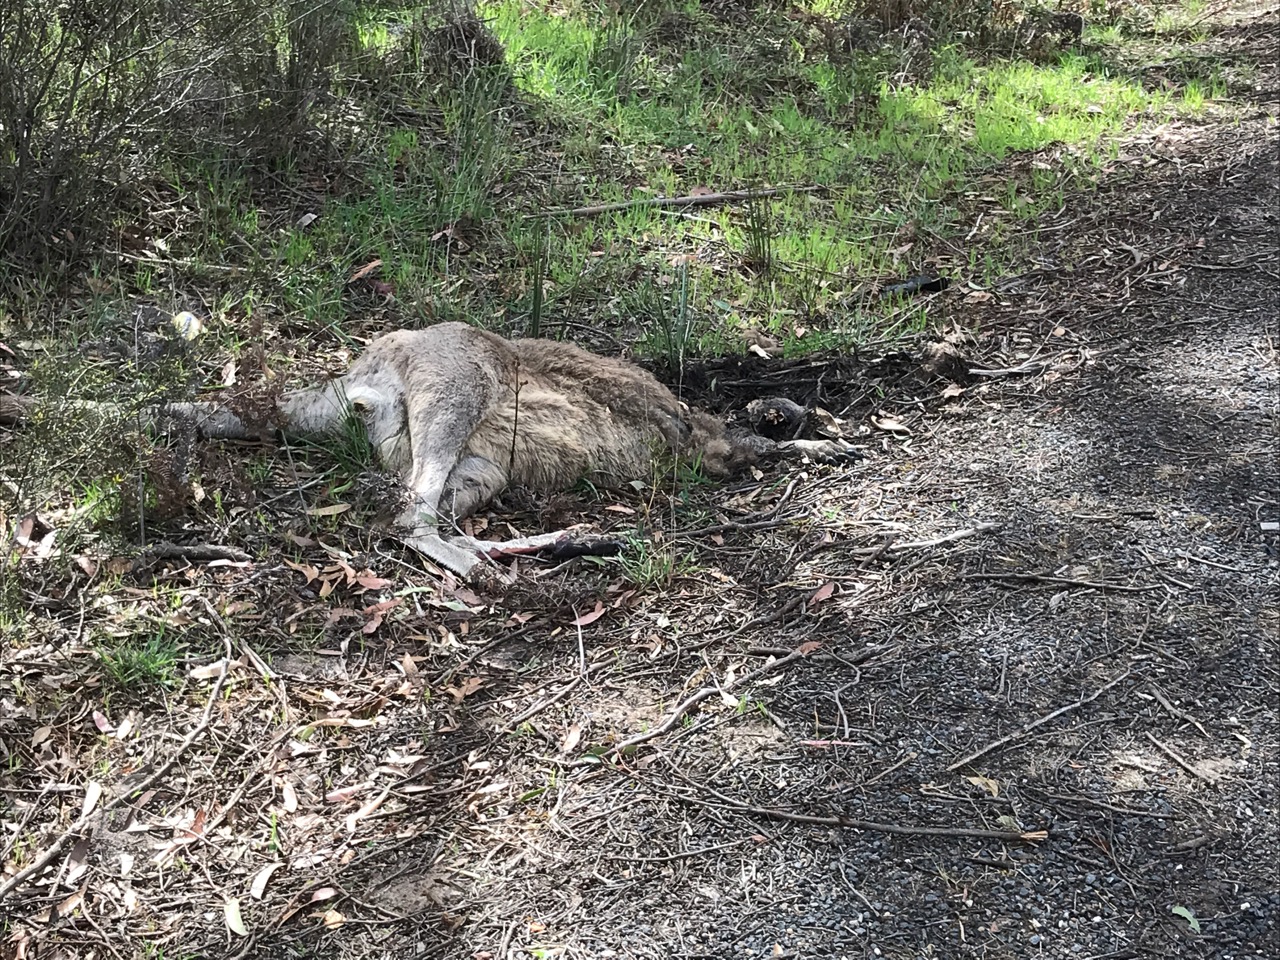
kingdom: Animalia
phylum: Chordata
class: Mammalia
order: Diprotodontia
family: Macropodidae
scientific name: Macropodidae
